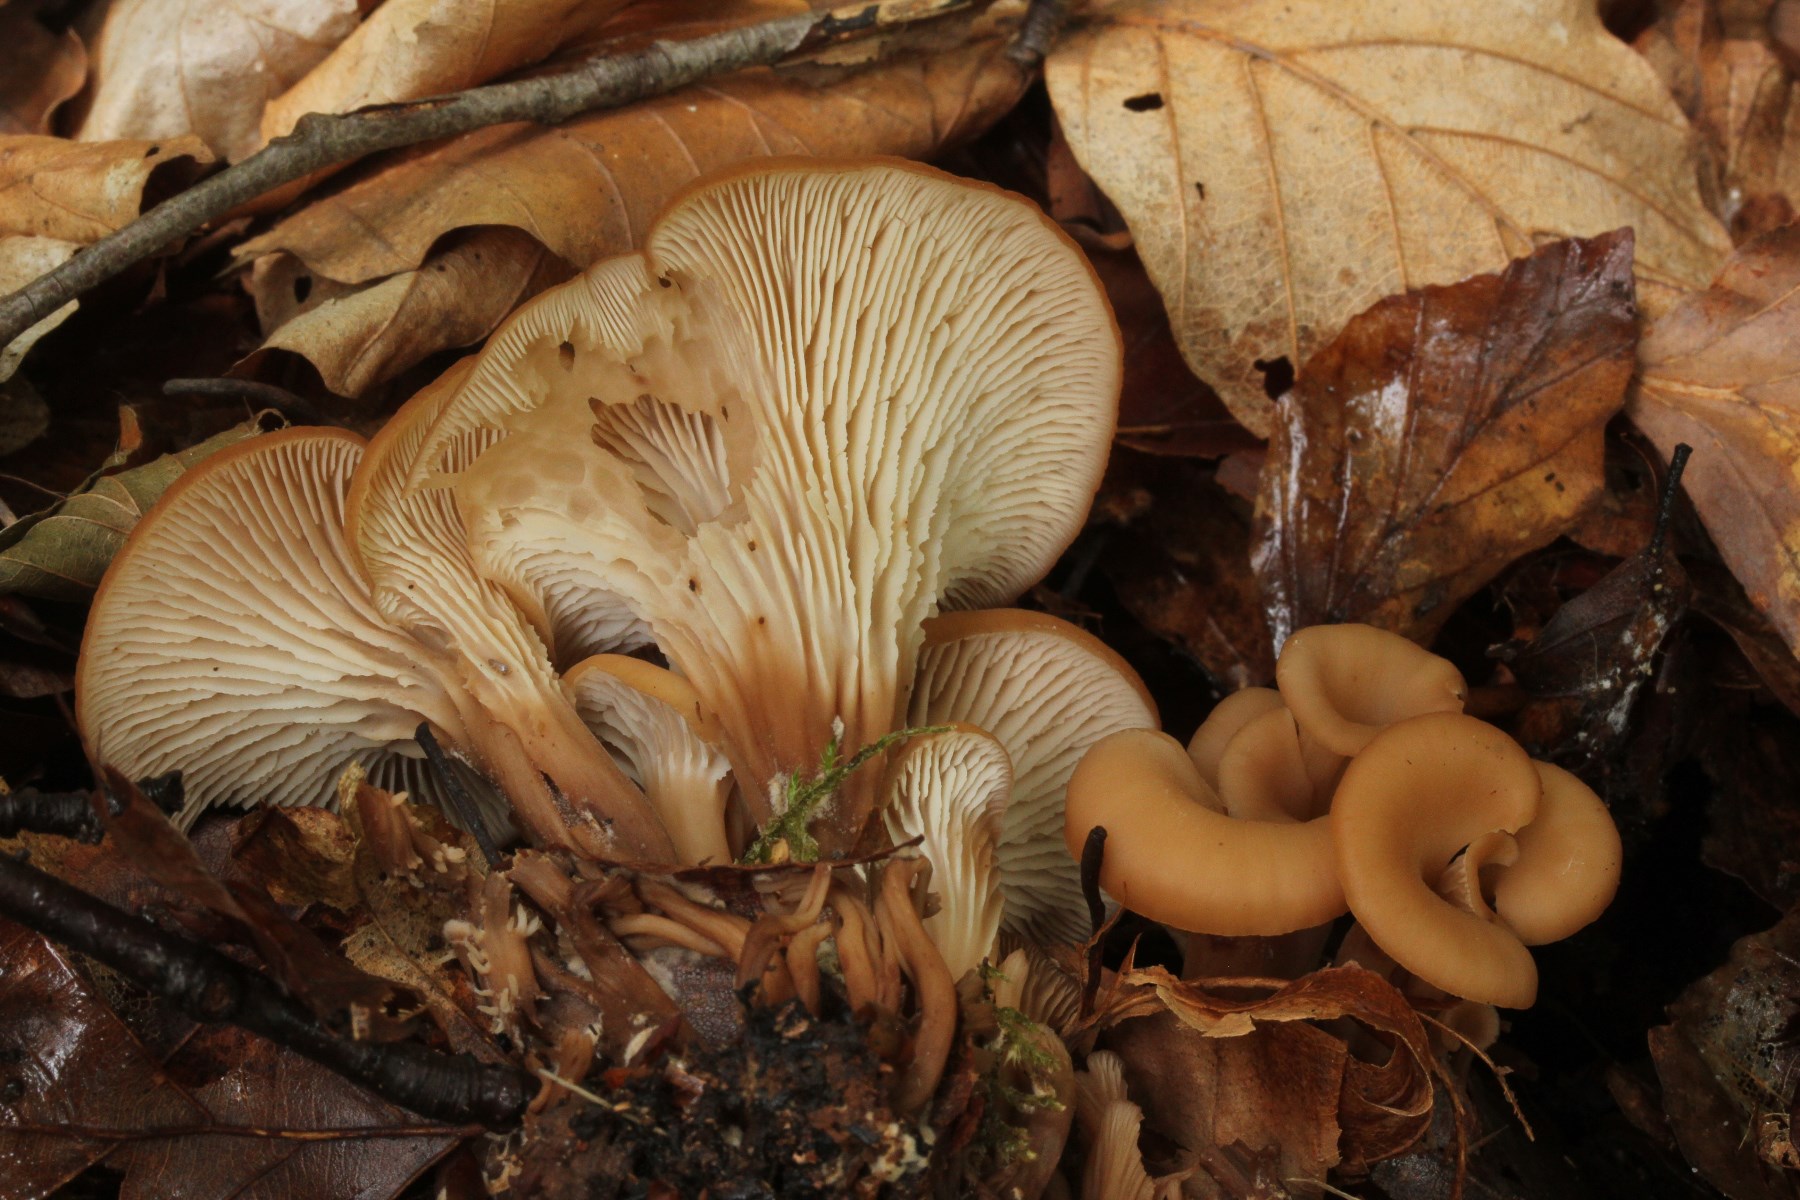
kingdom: Fungi
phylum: Basidiomycota
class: Agaricomycetes
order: Russulales
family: Auriscalpiaceae
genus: Lentinellus
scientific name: Lentinellus cochleatus
